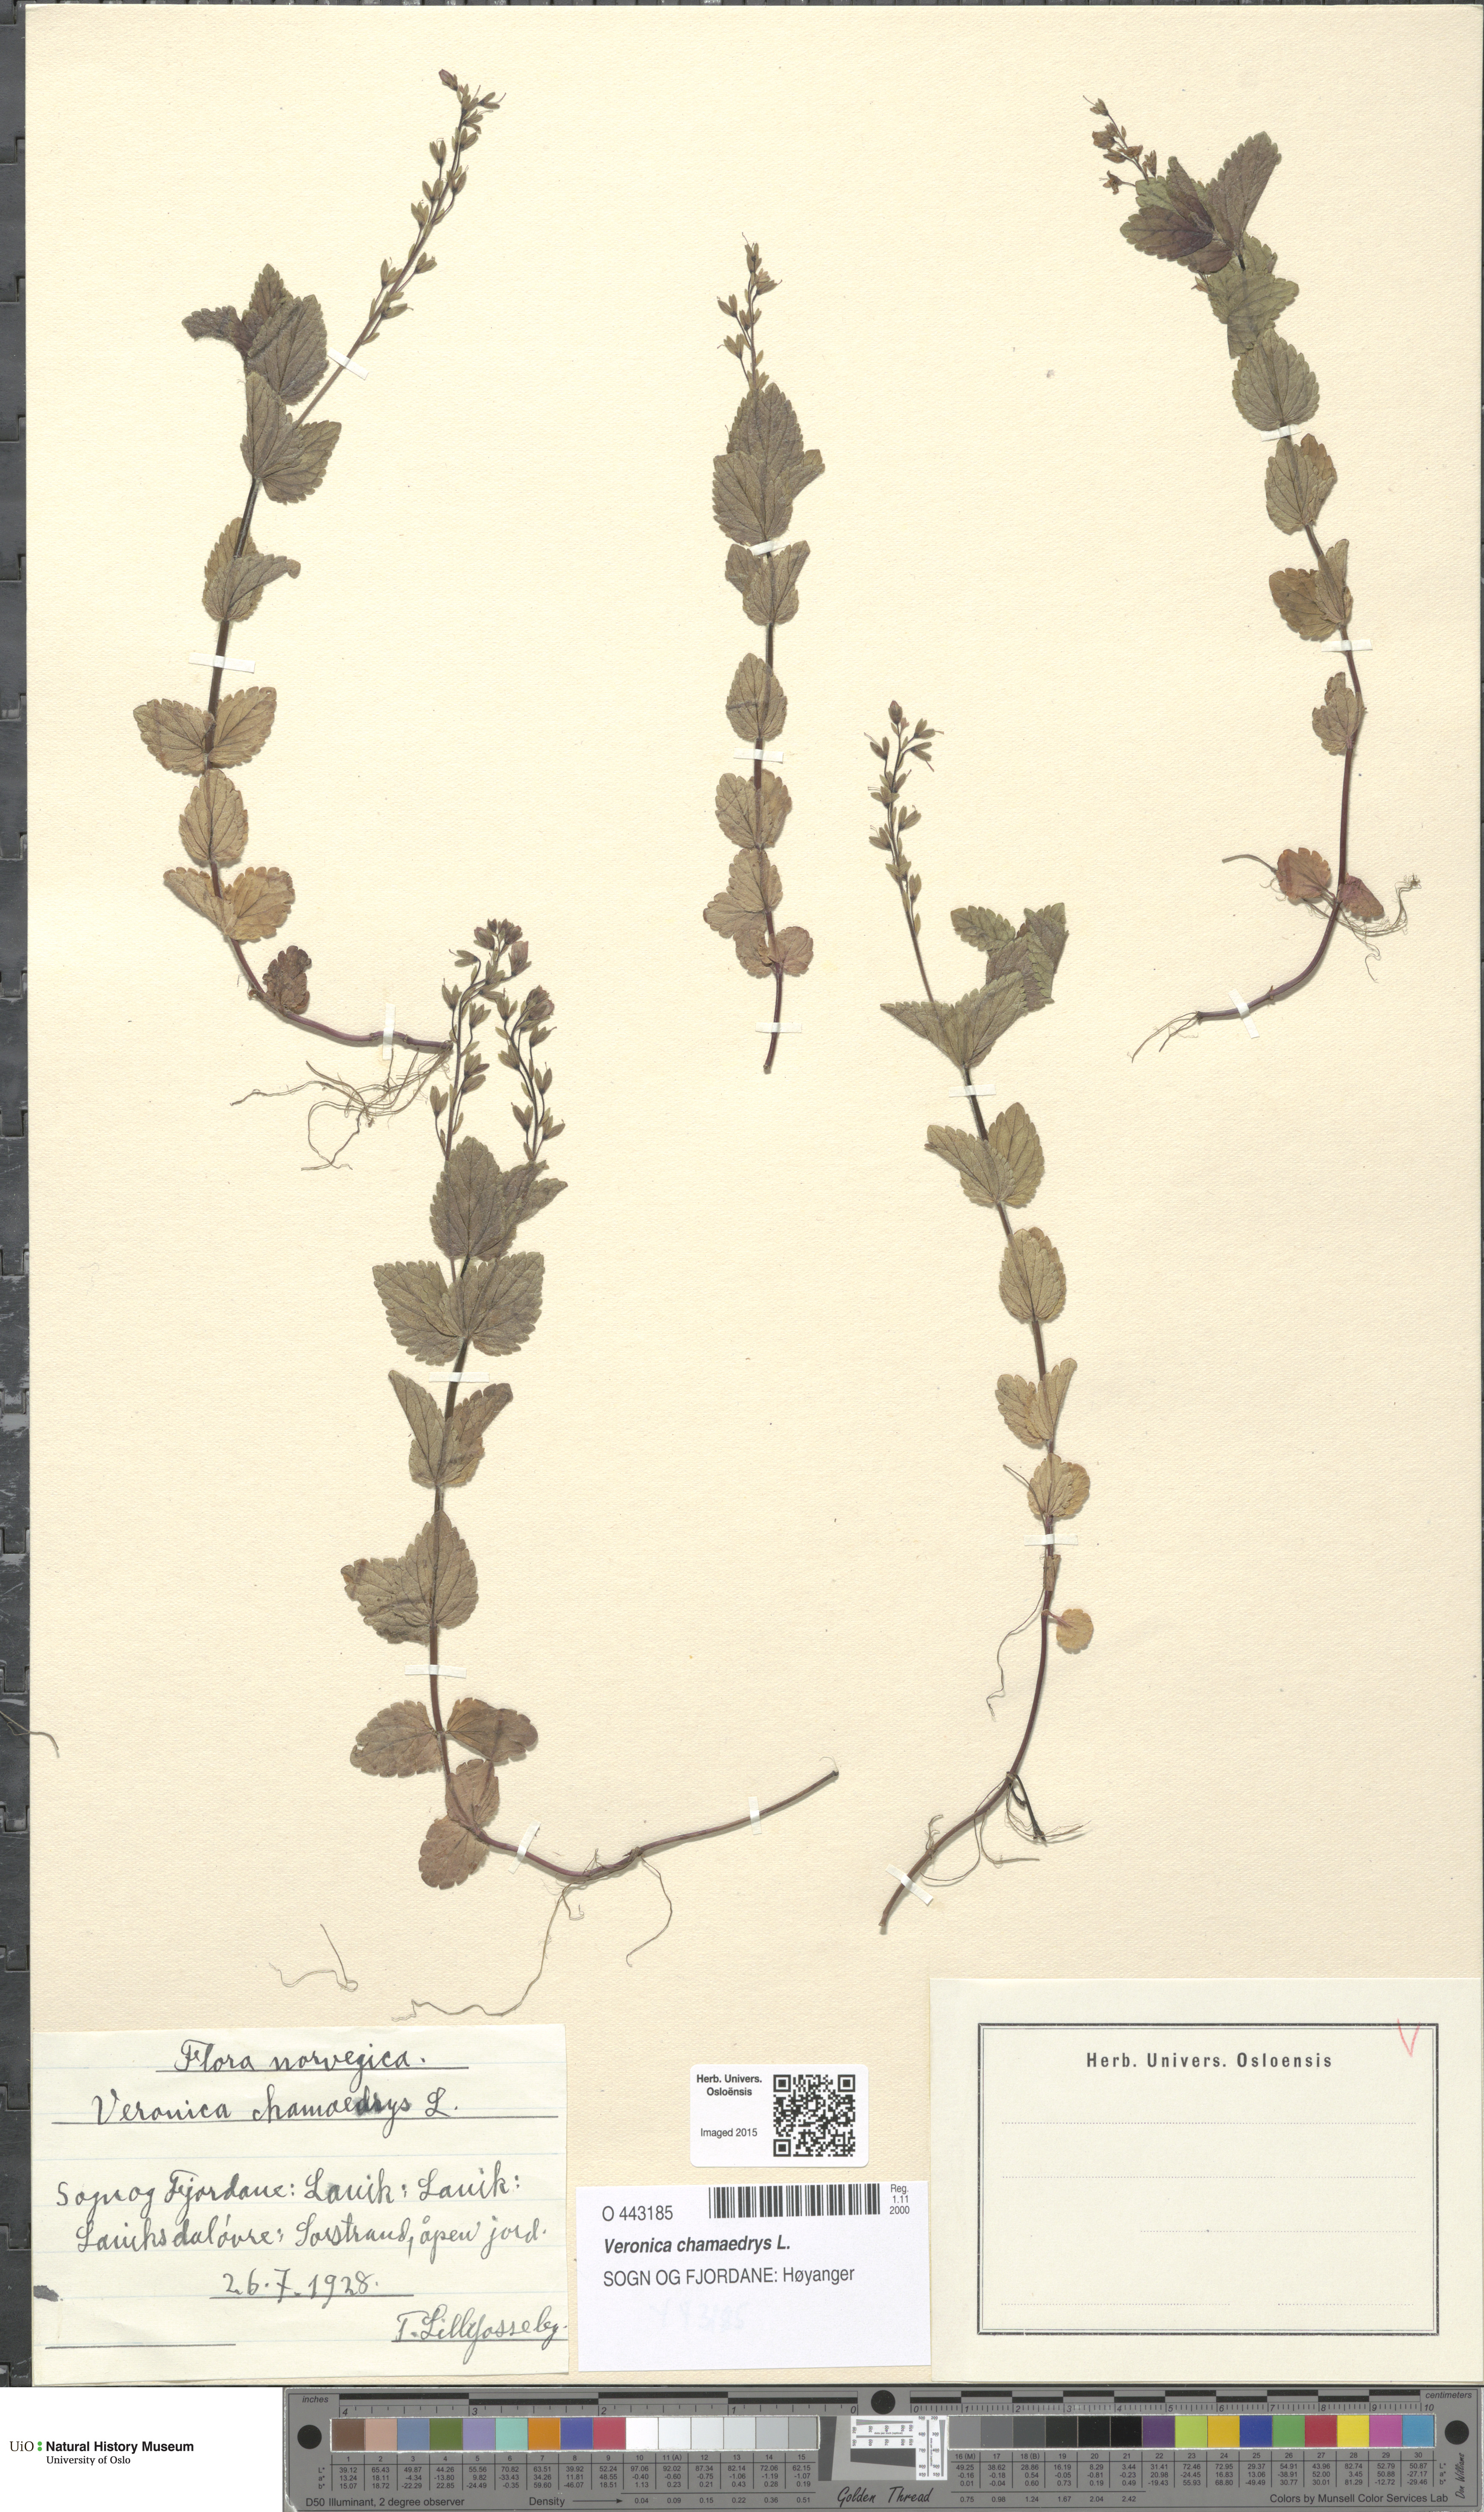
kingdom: Plantae
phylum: Tracheophyta
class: Magnoliopsida
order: Lamiales
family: Plantaginaceae
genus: Veronica
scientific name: Veronica chamaedrys
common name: Germander speedwell
